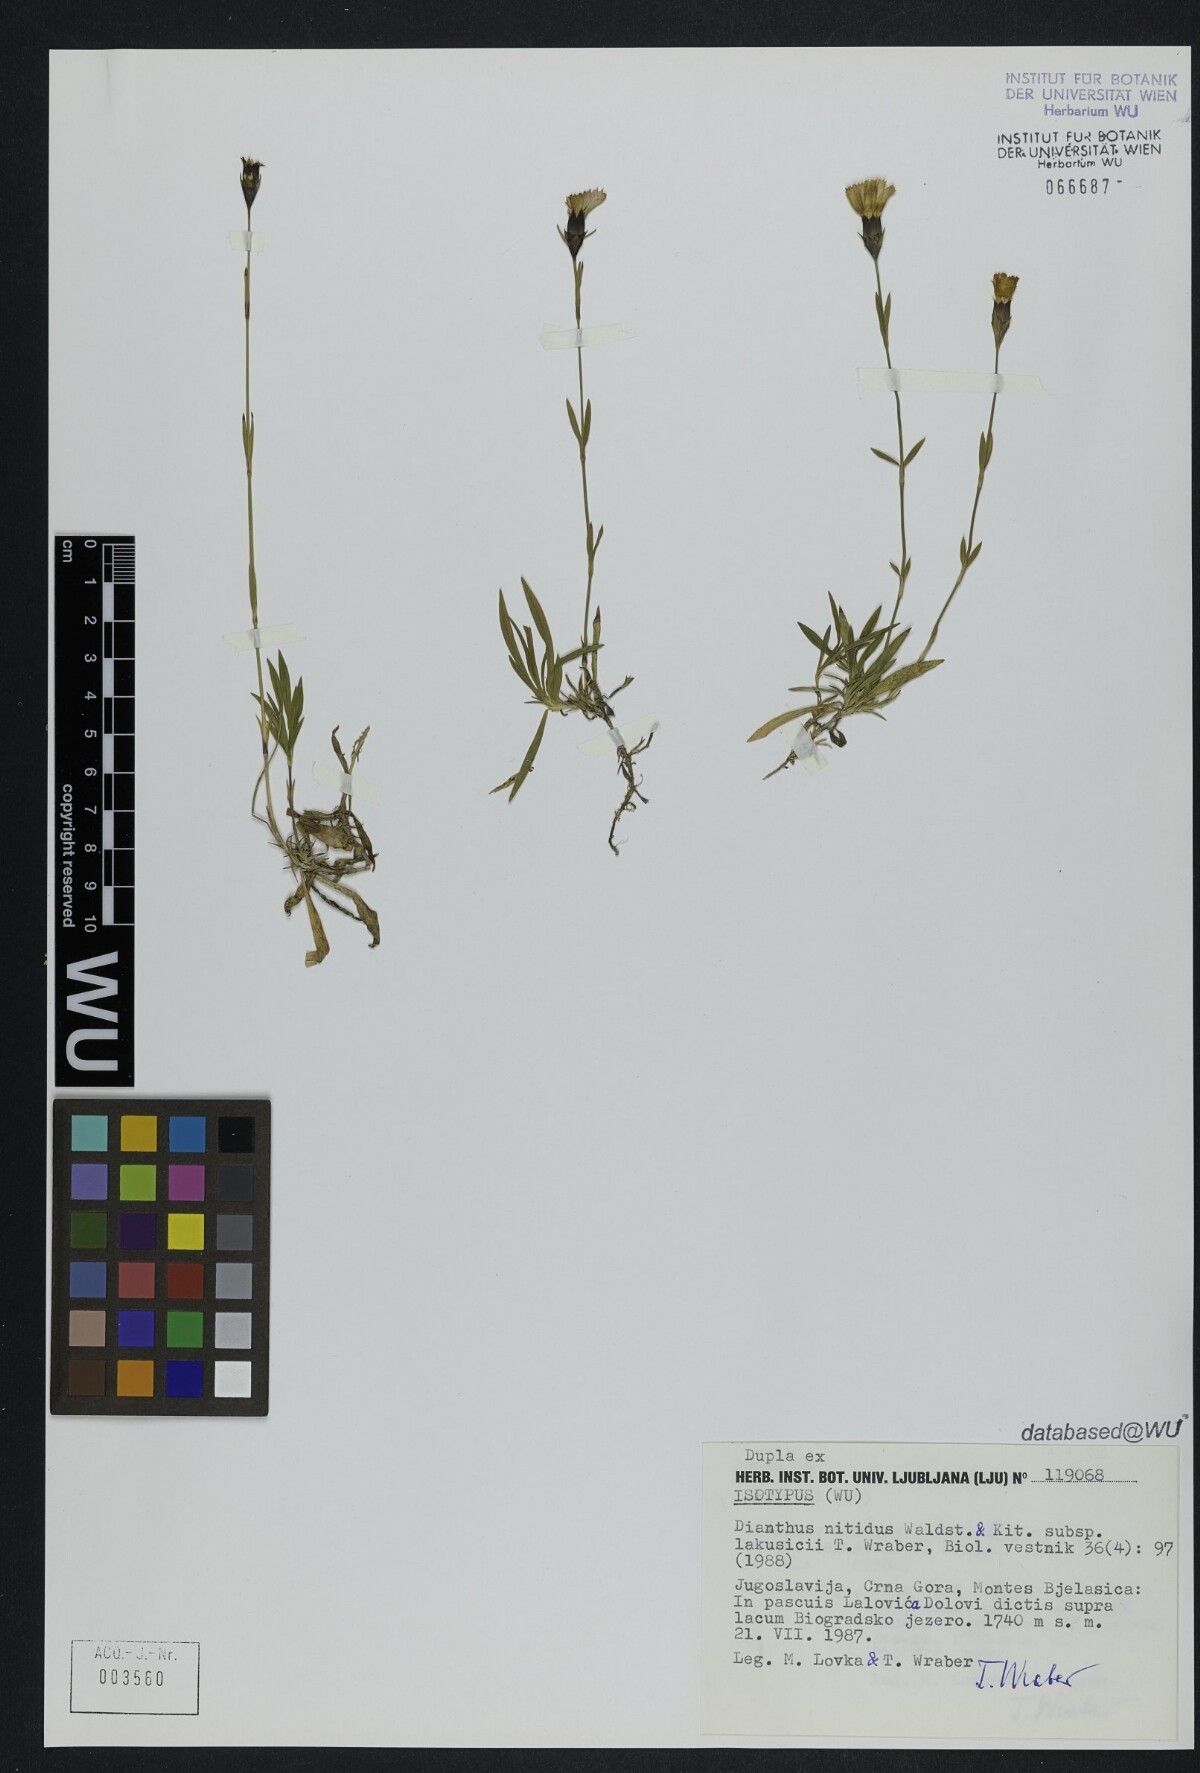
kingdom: Plantae
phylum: Tracheophyta
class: Magnoliopsida
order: Caryophyllales
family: Caryophyllaceae
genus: Dianthus
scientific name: Dianthus scardicus
